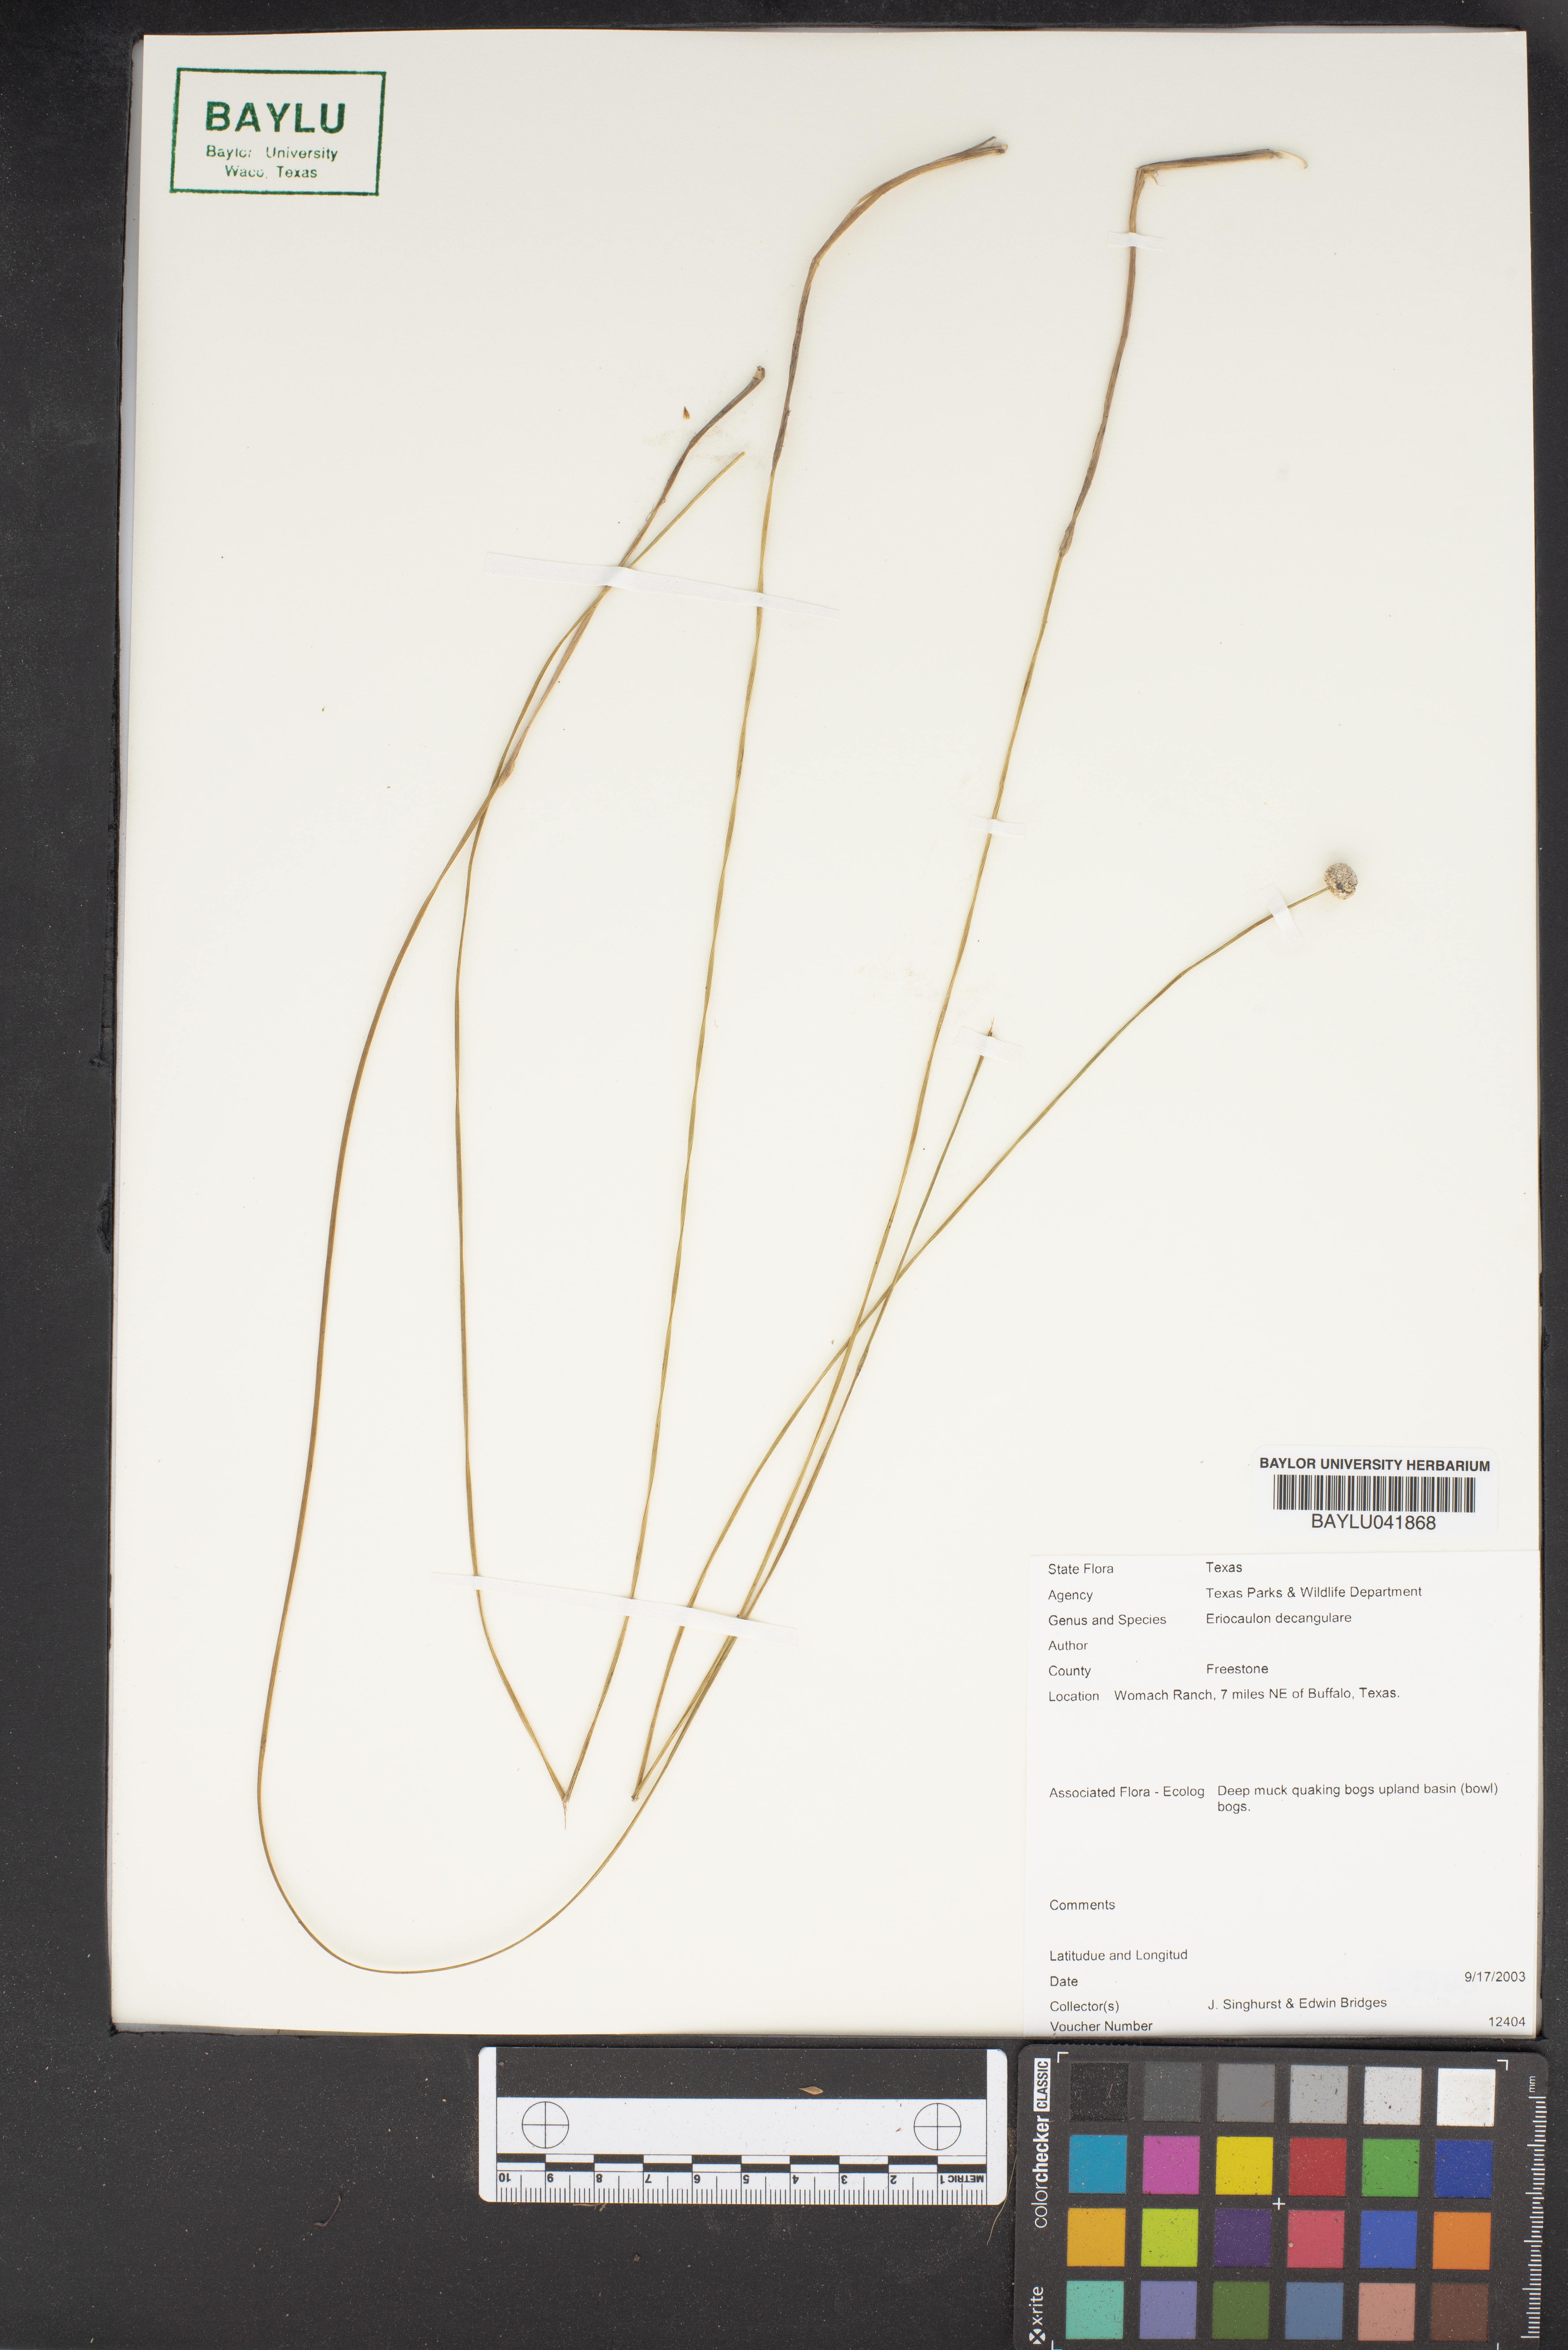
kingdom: Plantae
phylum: Tracheophyta
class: Liliopsida
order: Poales
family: Eriocaulaceae
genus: Eriocaulon
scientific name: Eriocaulon decangulare
